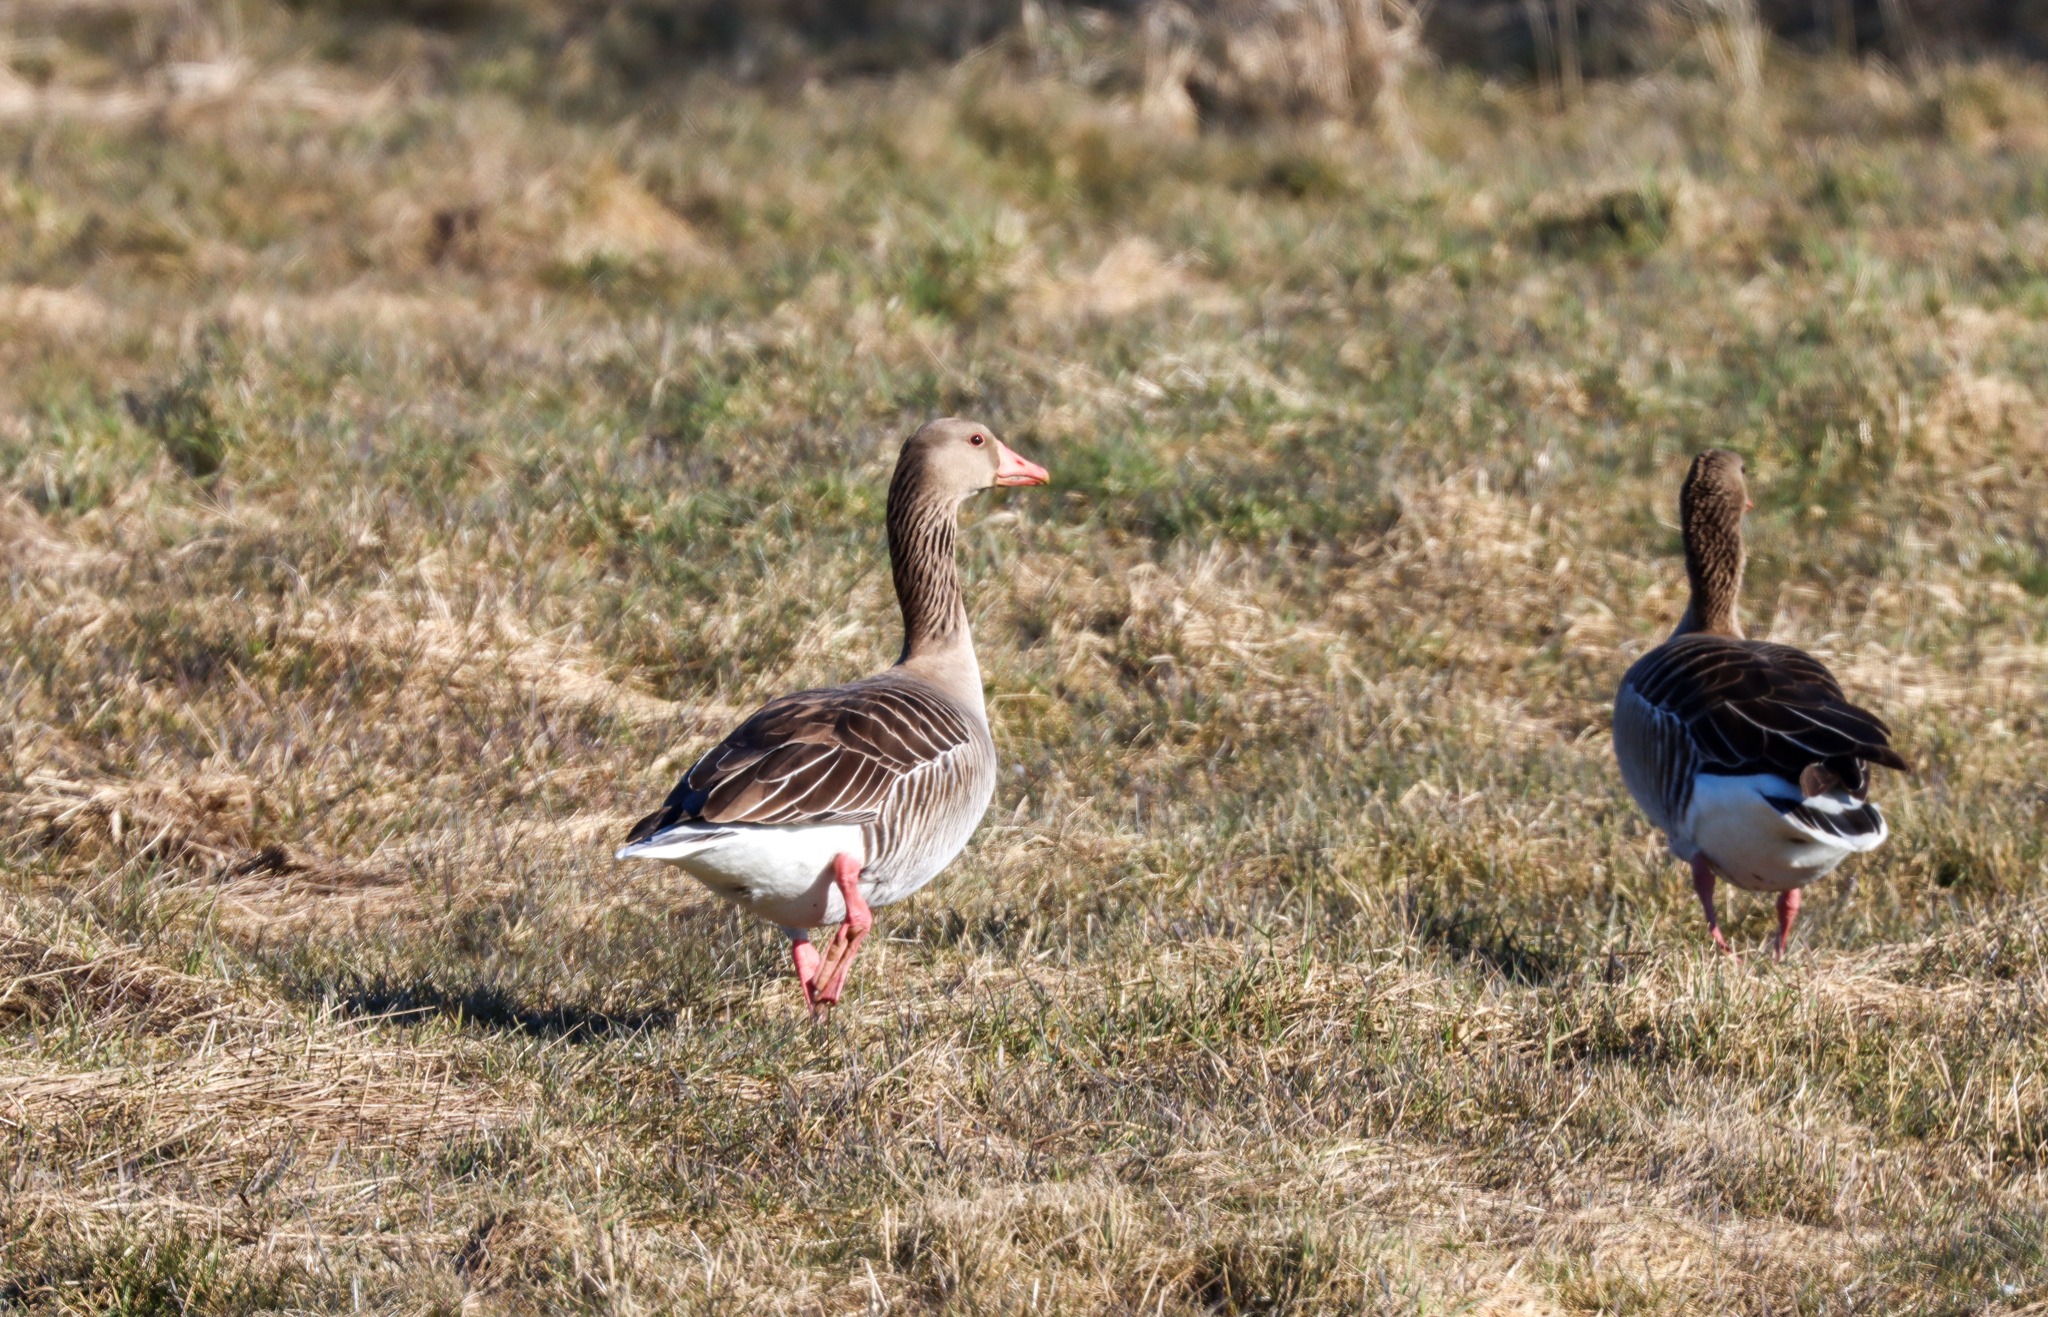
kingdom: Animalia
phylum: Chordata
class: Aves
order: Anseriformes
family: Anatidae
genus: Anser
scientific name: Anser anser
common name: Grågås
